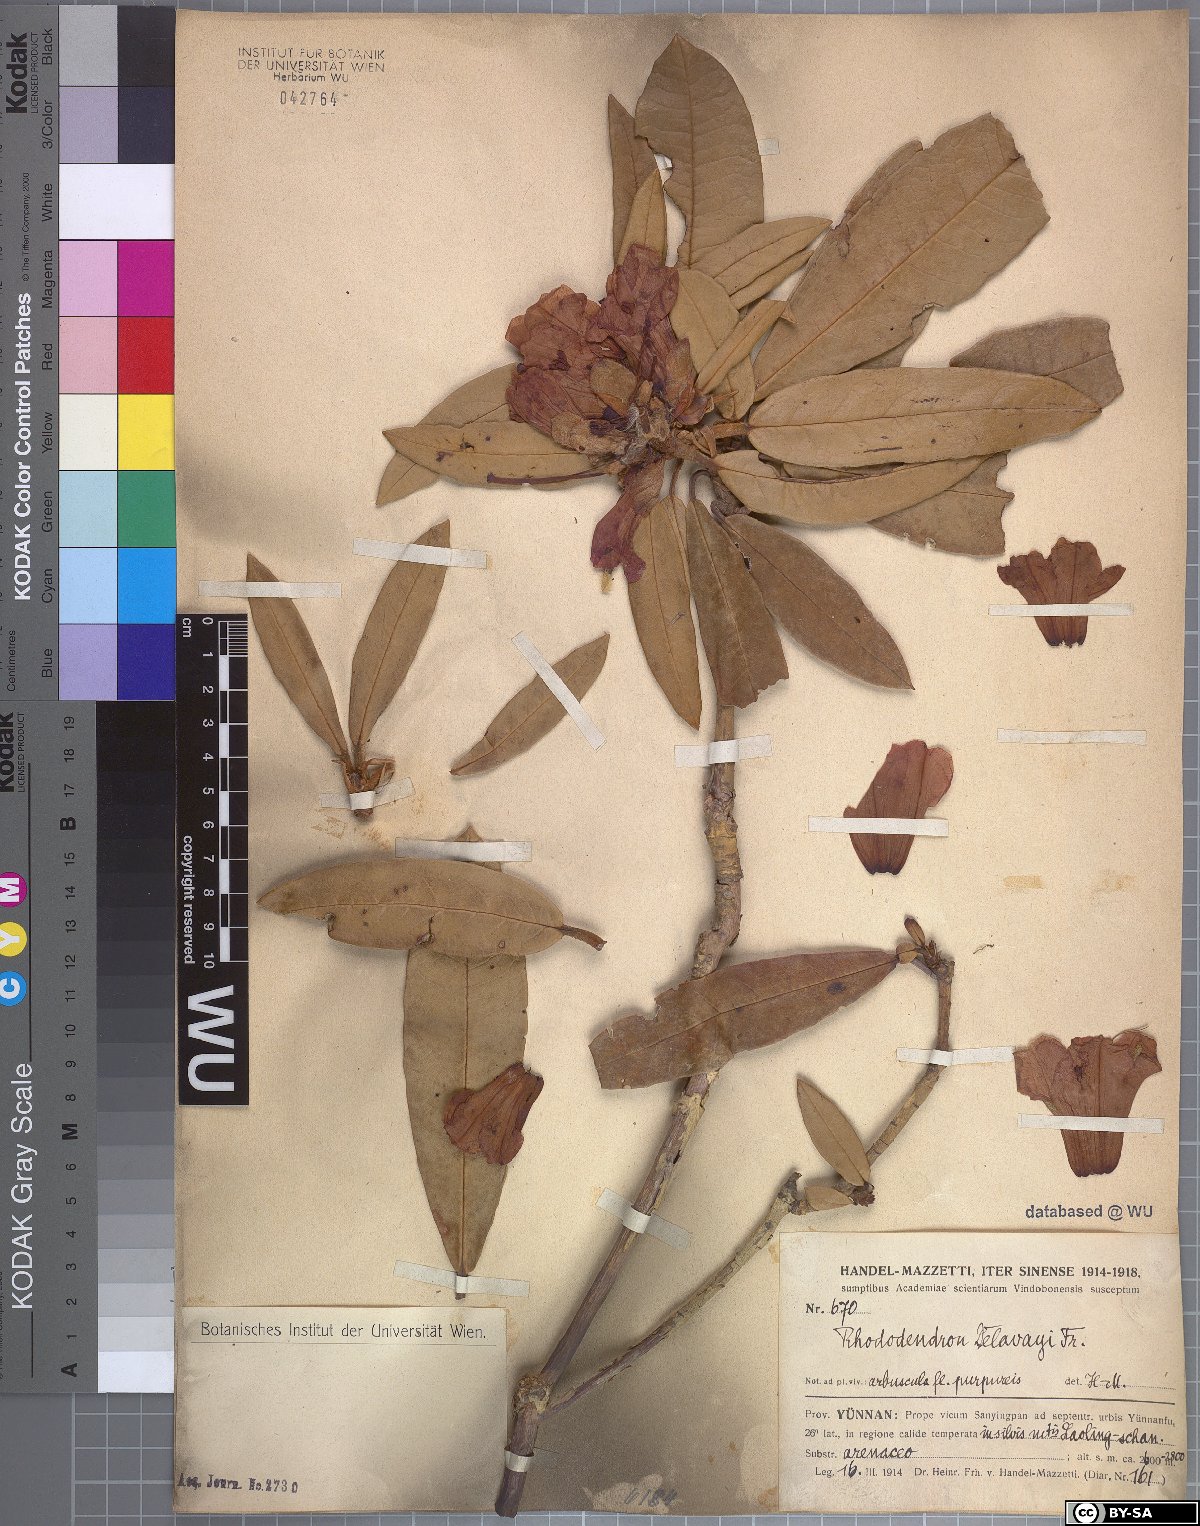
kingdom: Plantae
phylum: Tracheophyta
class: Magnoliopsida
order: Ericales
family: Ericaceae
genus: Rhododendron
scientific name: Rhododendron delavayi
